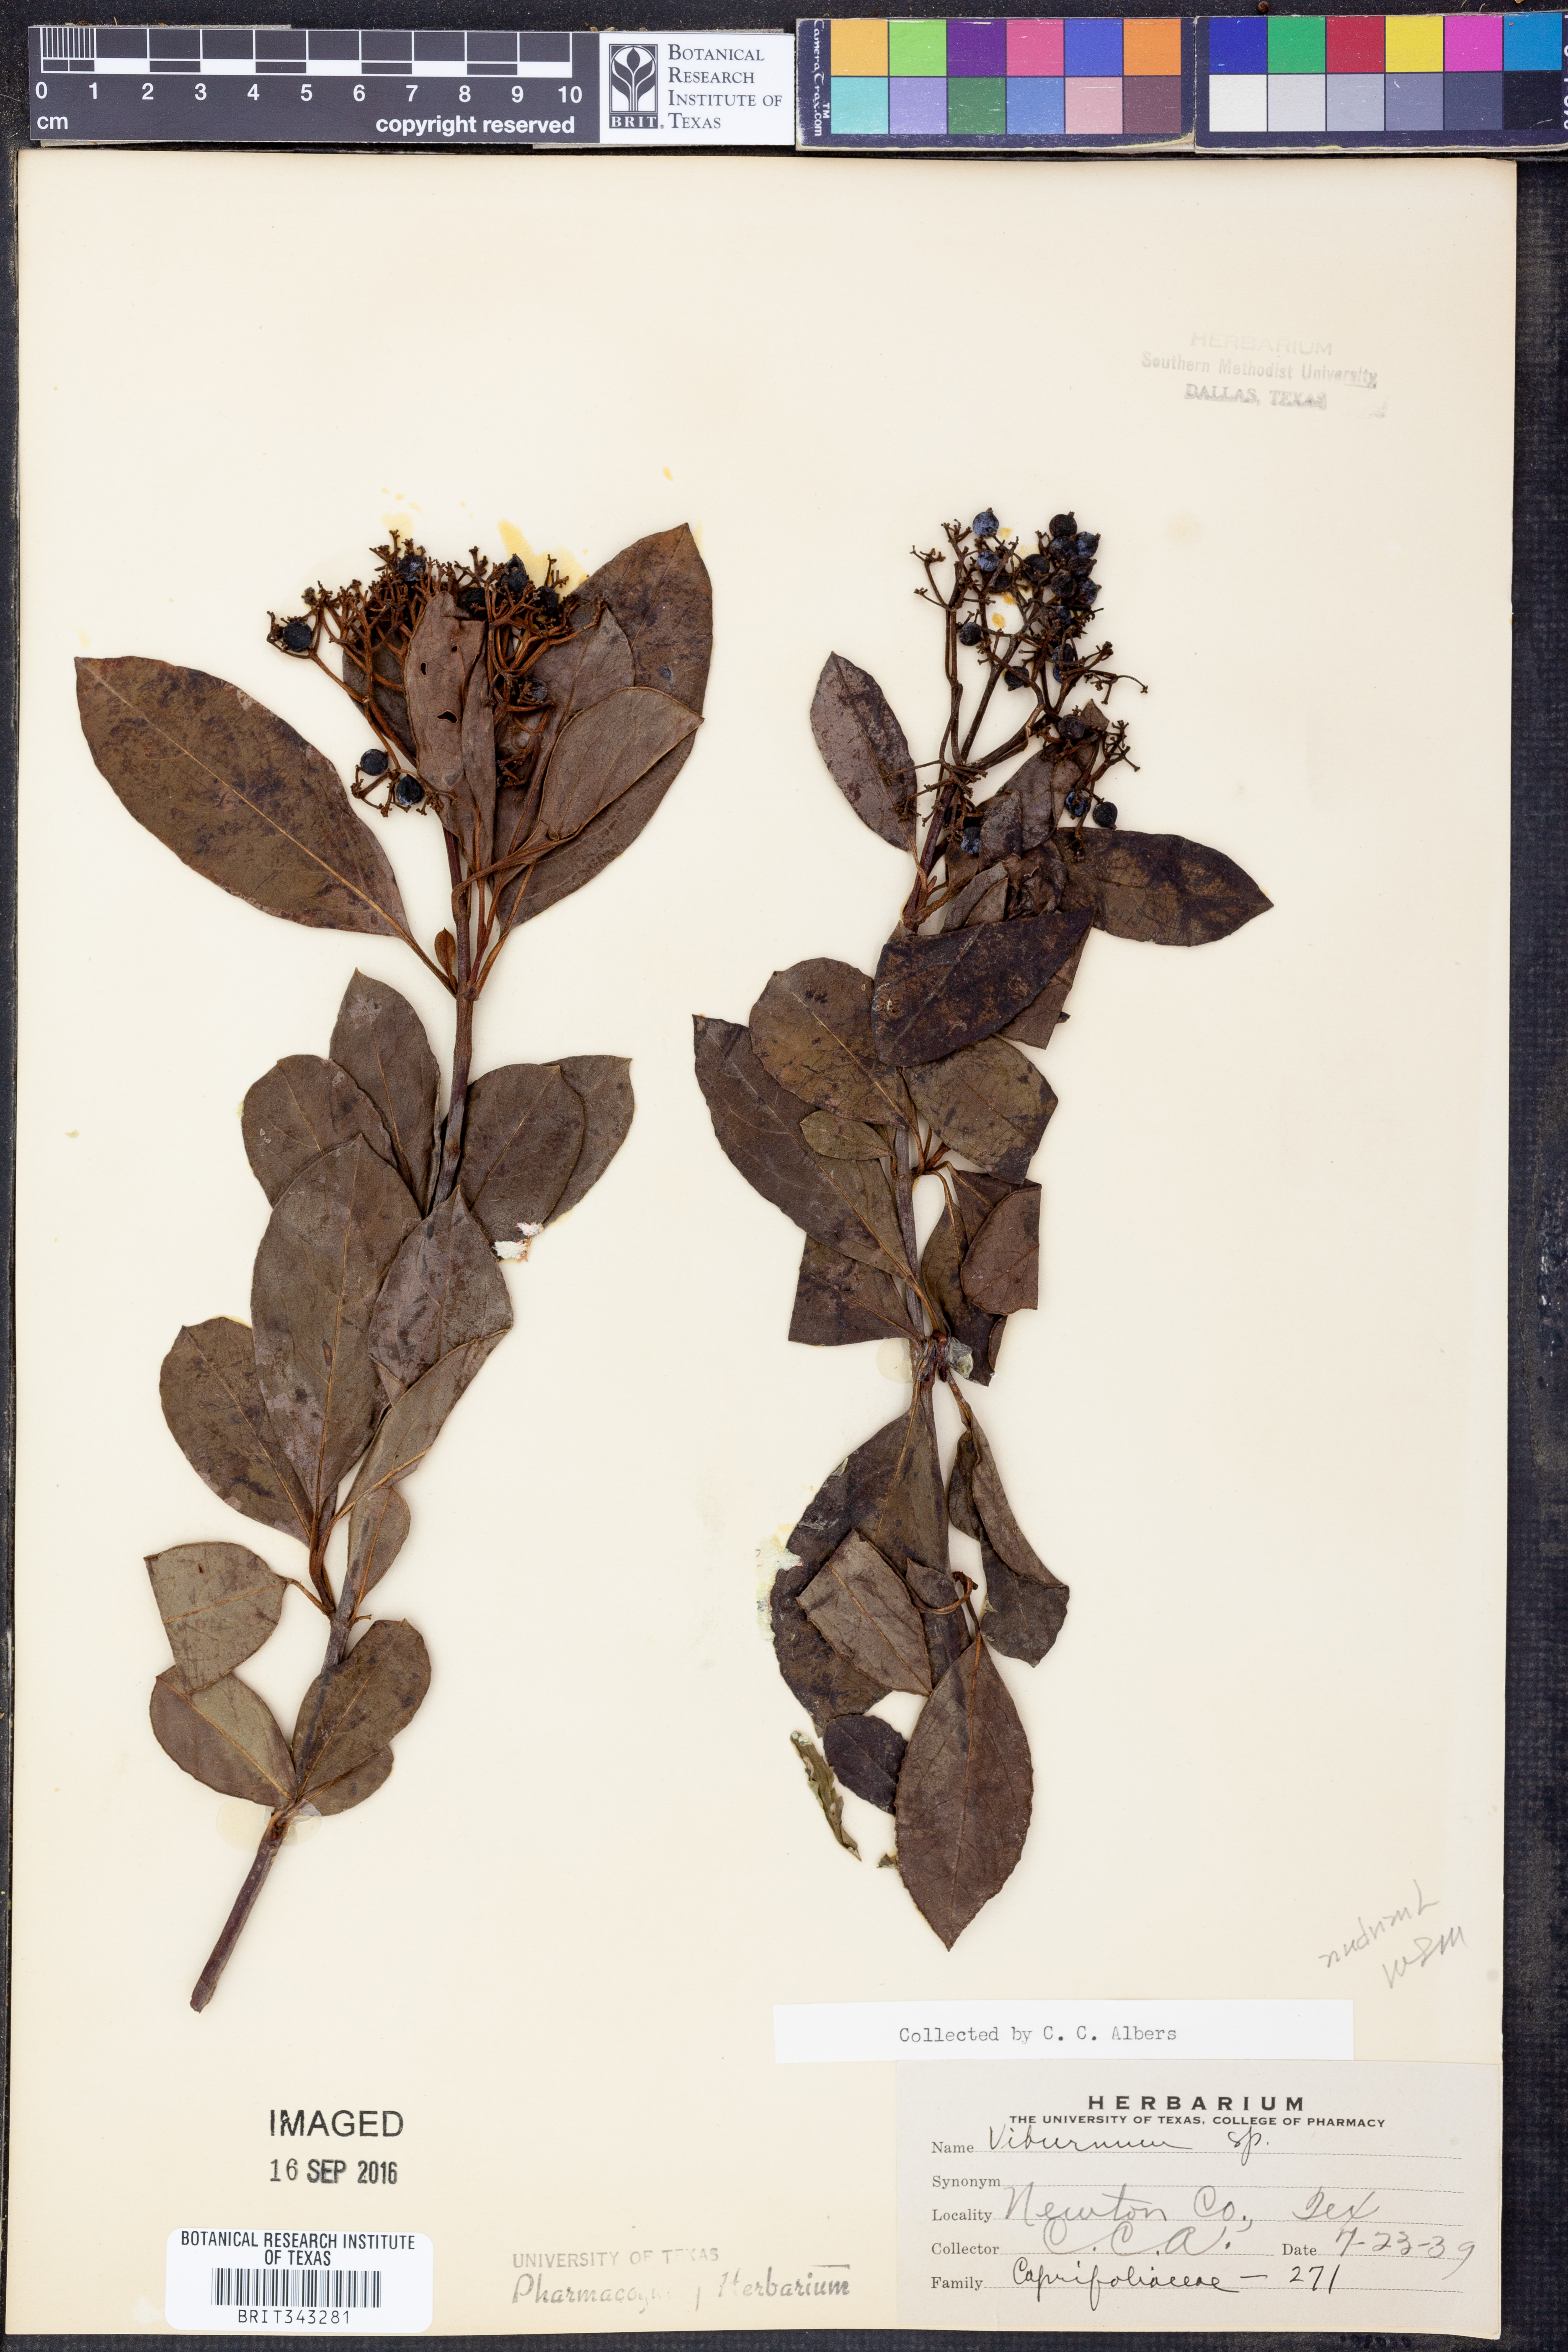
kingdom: Plantae
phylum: Tracheophyta
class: Magnoliopsida
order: Dipsacales
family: Viburnaceae
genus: Viburnum
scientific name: Viburnum nudum
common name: Possum haw
